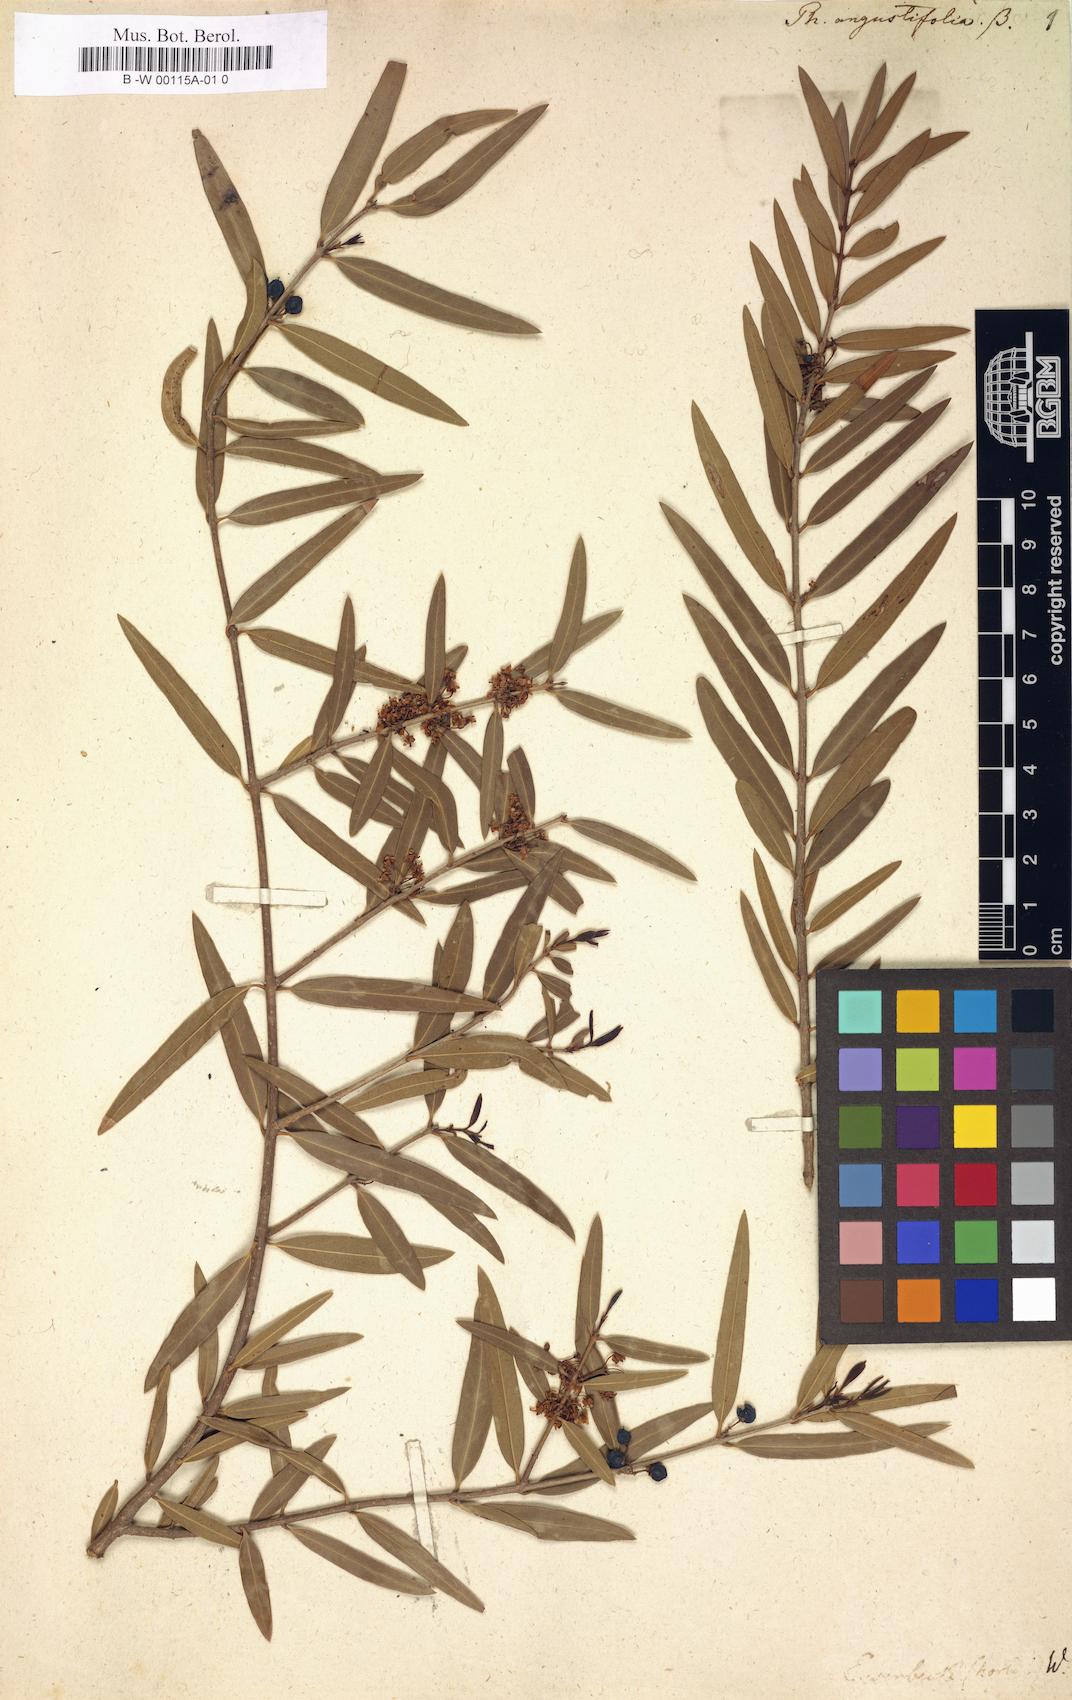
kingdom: Plantae
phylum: Tracheophyta
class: Magnoliopsida
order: Lamiales
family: Oleaceae
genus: Phillyrea
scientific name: Phillyrea angustifolia
